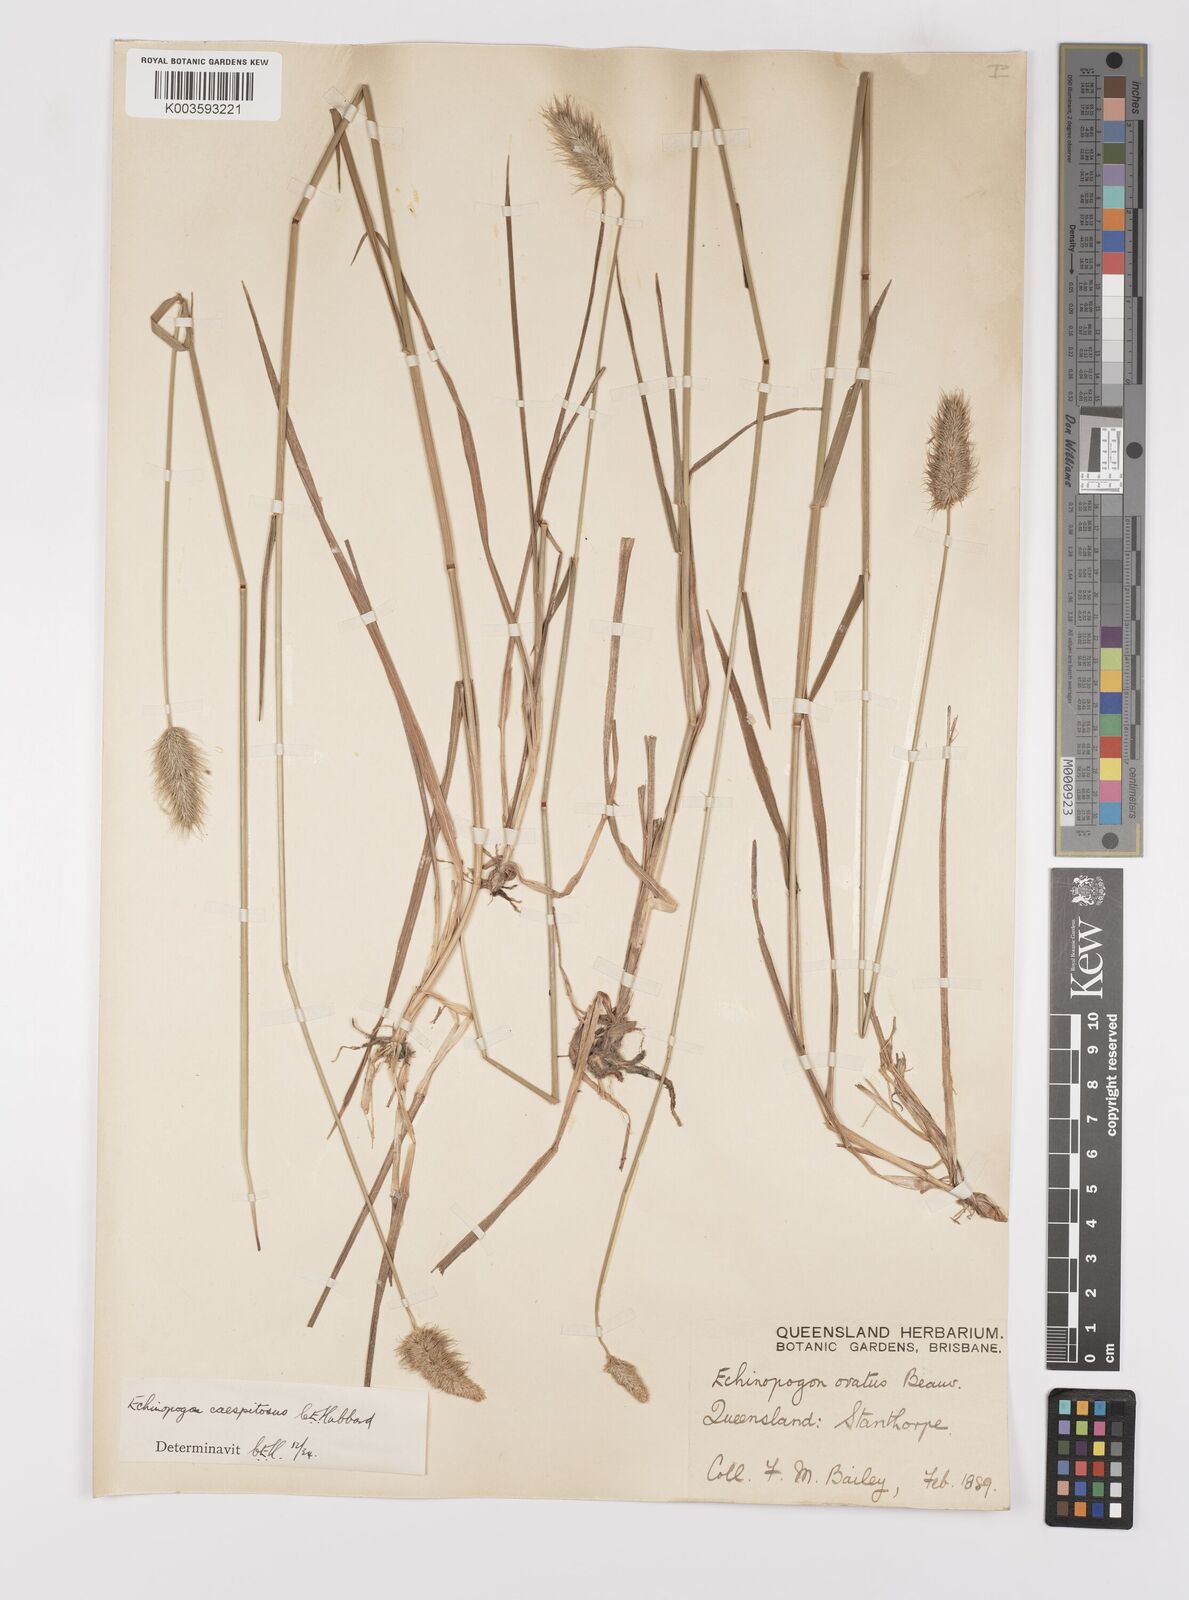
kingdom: Plantae
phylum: Tracheophyta
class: Liliopsida
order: Poales
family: Poaceae
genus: Echinopogon
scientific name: Echinopogon caespitosus
